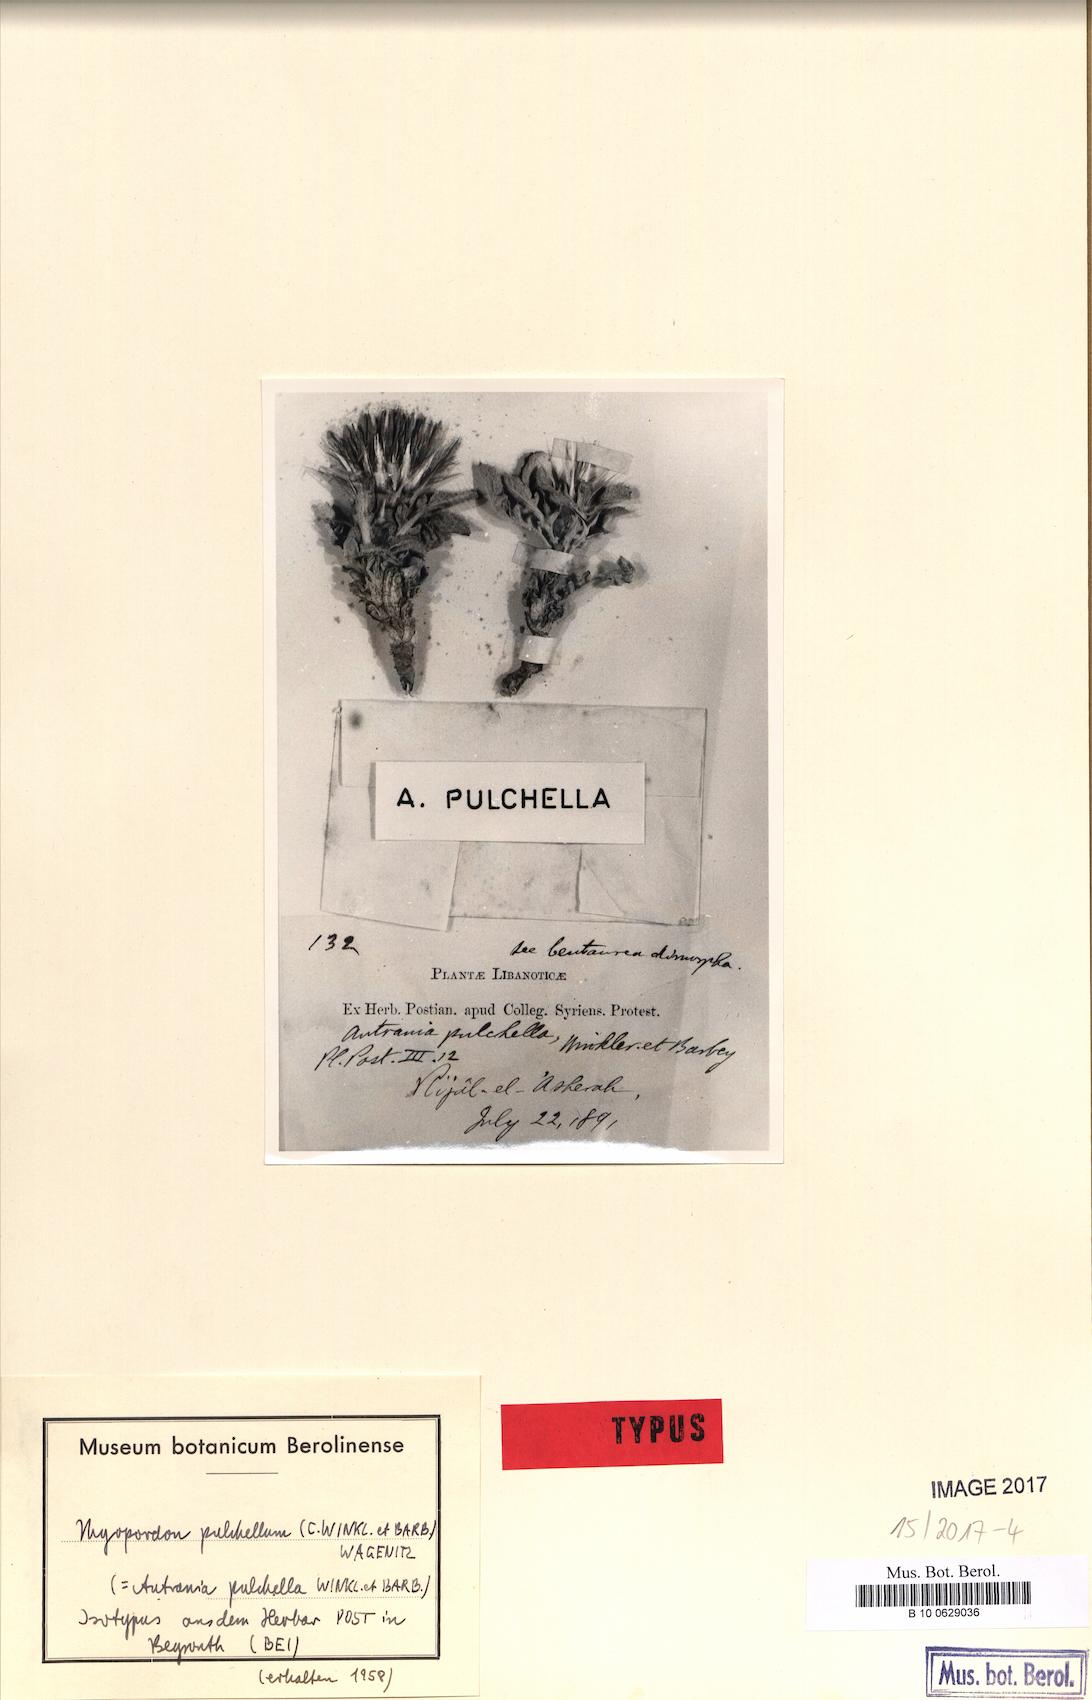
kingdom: Plantae
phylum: Tracheophyta
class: Magnoliopsida
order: Asterales
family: Asteraceae
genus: Myopordon
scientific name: Myopordon
